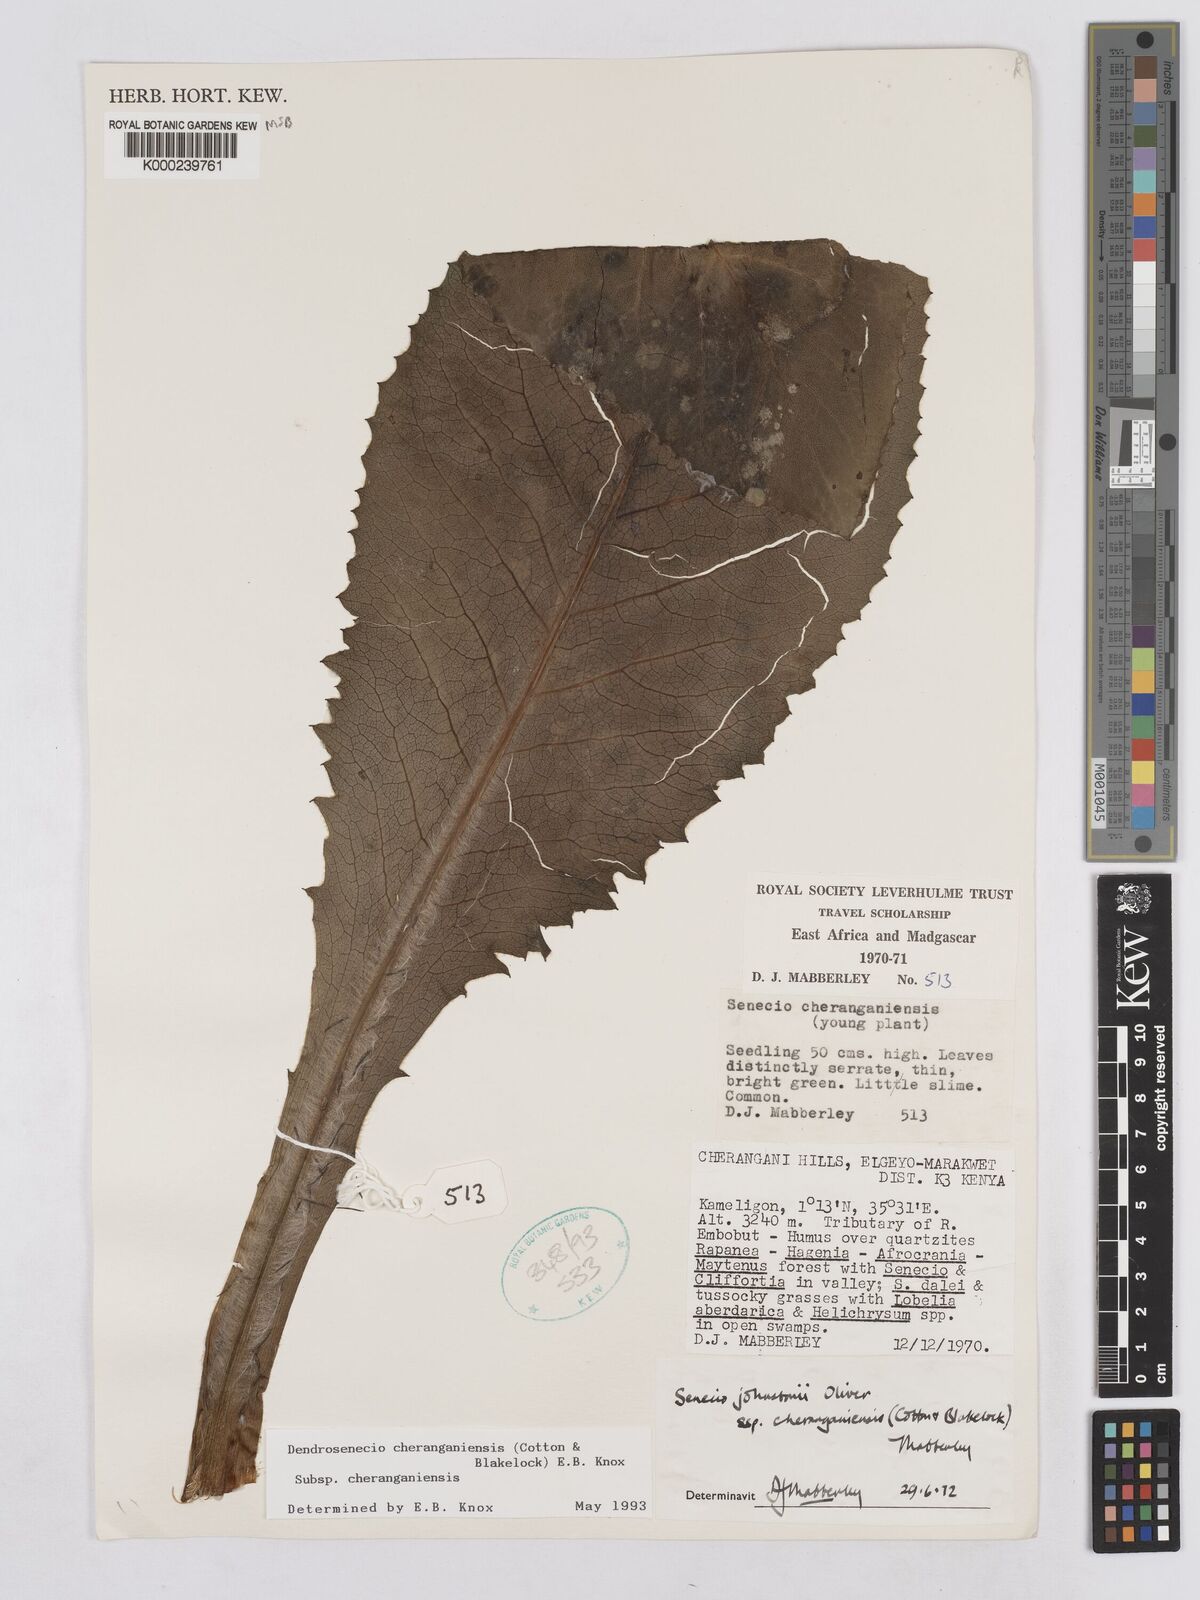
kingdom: Plantae
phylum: Tracheophyta
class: Magnoliopsida
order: Asterales
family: Asteraceae
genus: Dendrosenecio
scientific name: Dendrosenecio cheranganiensis
